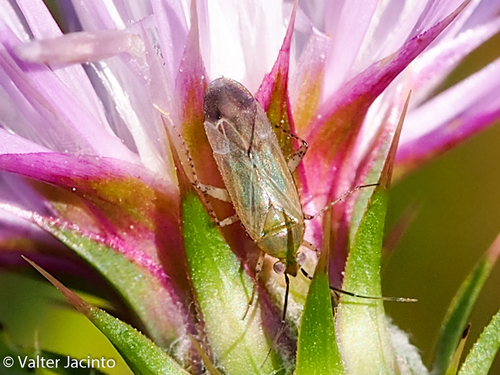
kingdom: Animalia
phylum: Arthropoda
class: Insecta
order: Hemiptera
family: Miridae
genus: Plagiognathus
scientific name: Plagiognathus arbustorum
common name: Plant bug
